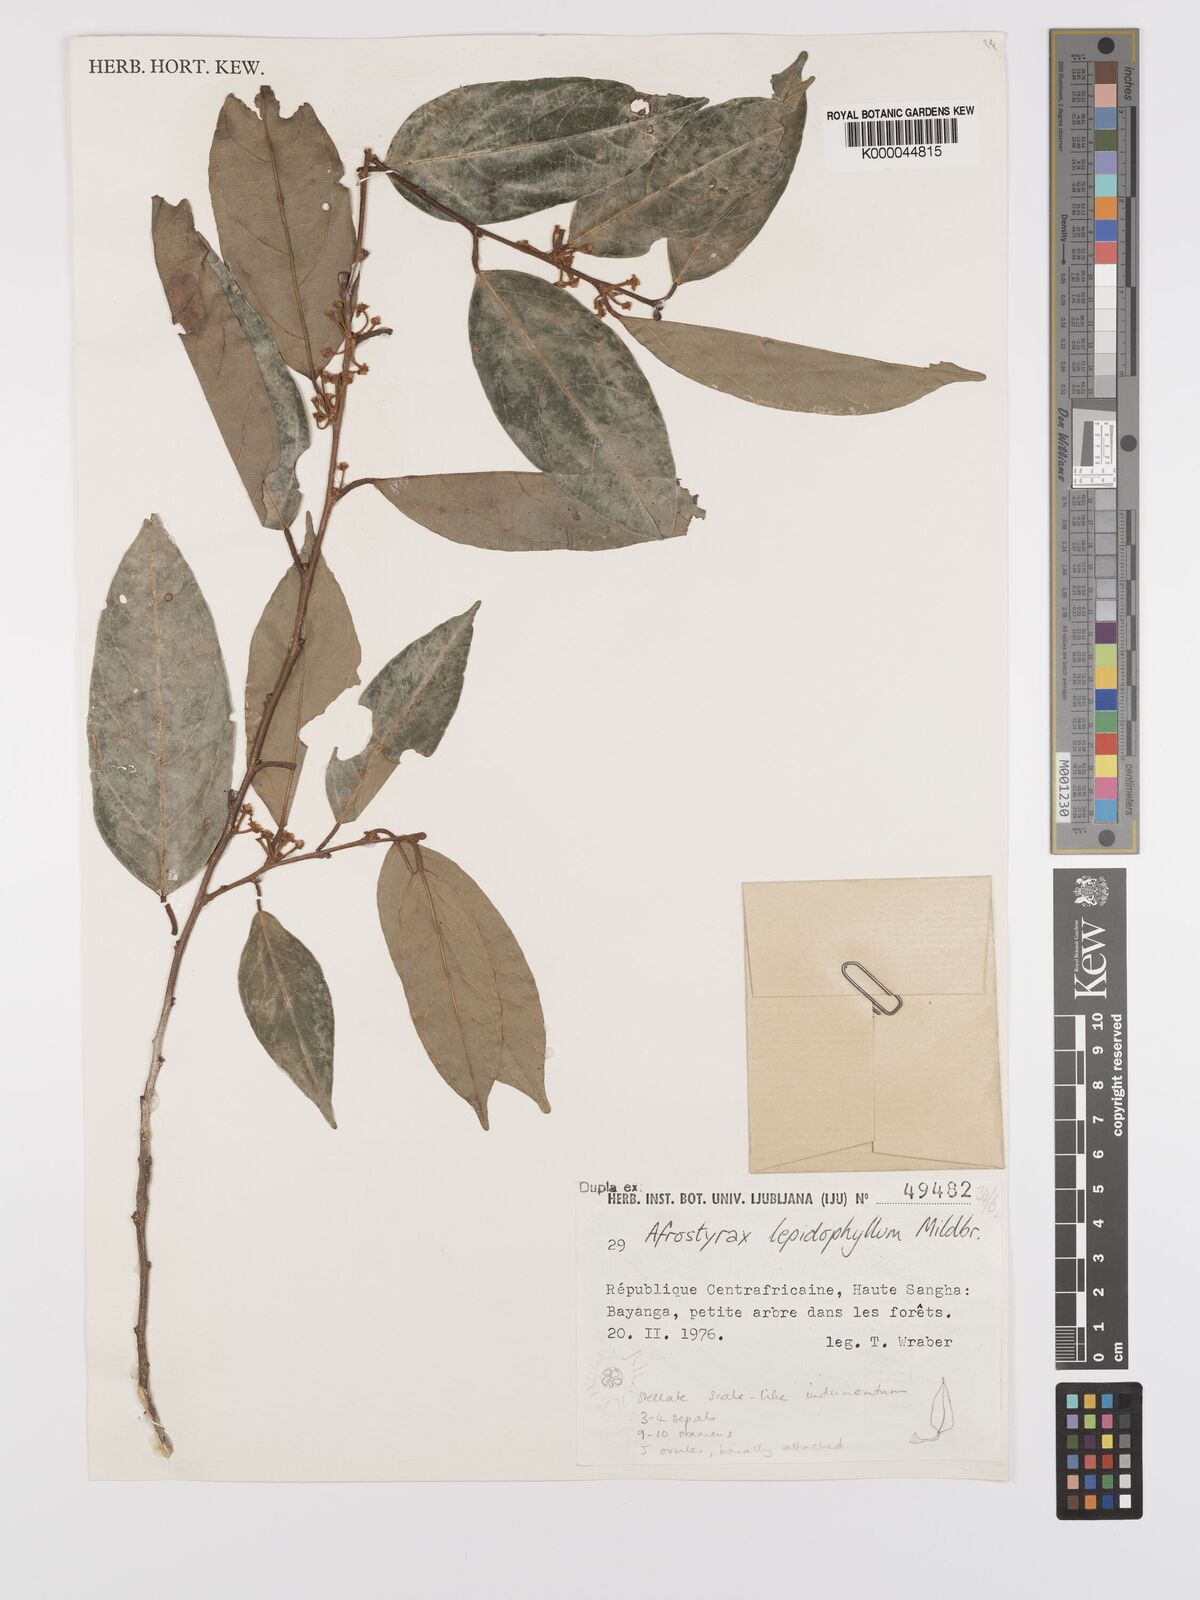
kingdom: Plantae
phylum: Tracheophyta
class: Magnoliopsida
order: Oxalidales
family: Huaceae
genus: Afrostyrax
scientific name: Afrostyrax lepidophyllus
